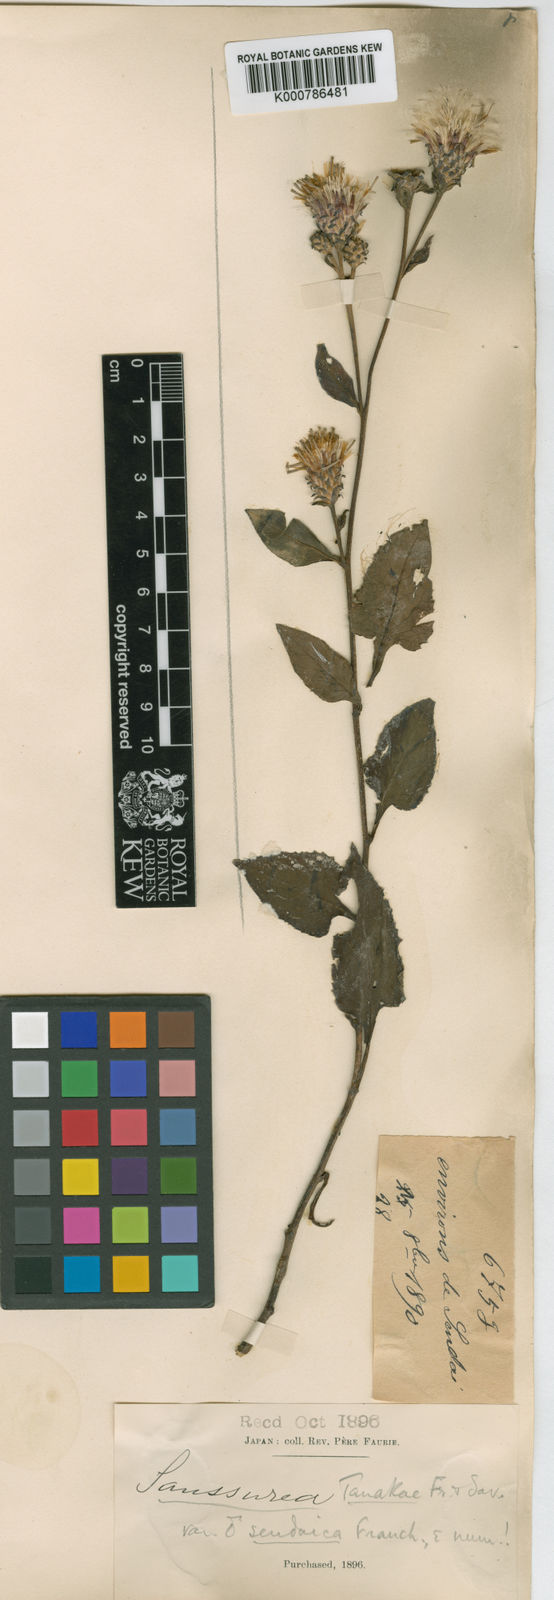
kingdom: Plantae
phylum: Tracheophyta
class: Magnoliopsida
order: Asterales
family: Asteraceae
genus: Saussurea
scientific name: Saussurea nipponica
